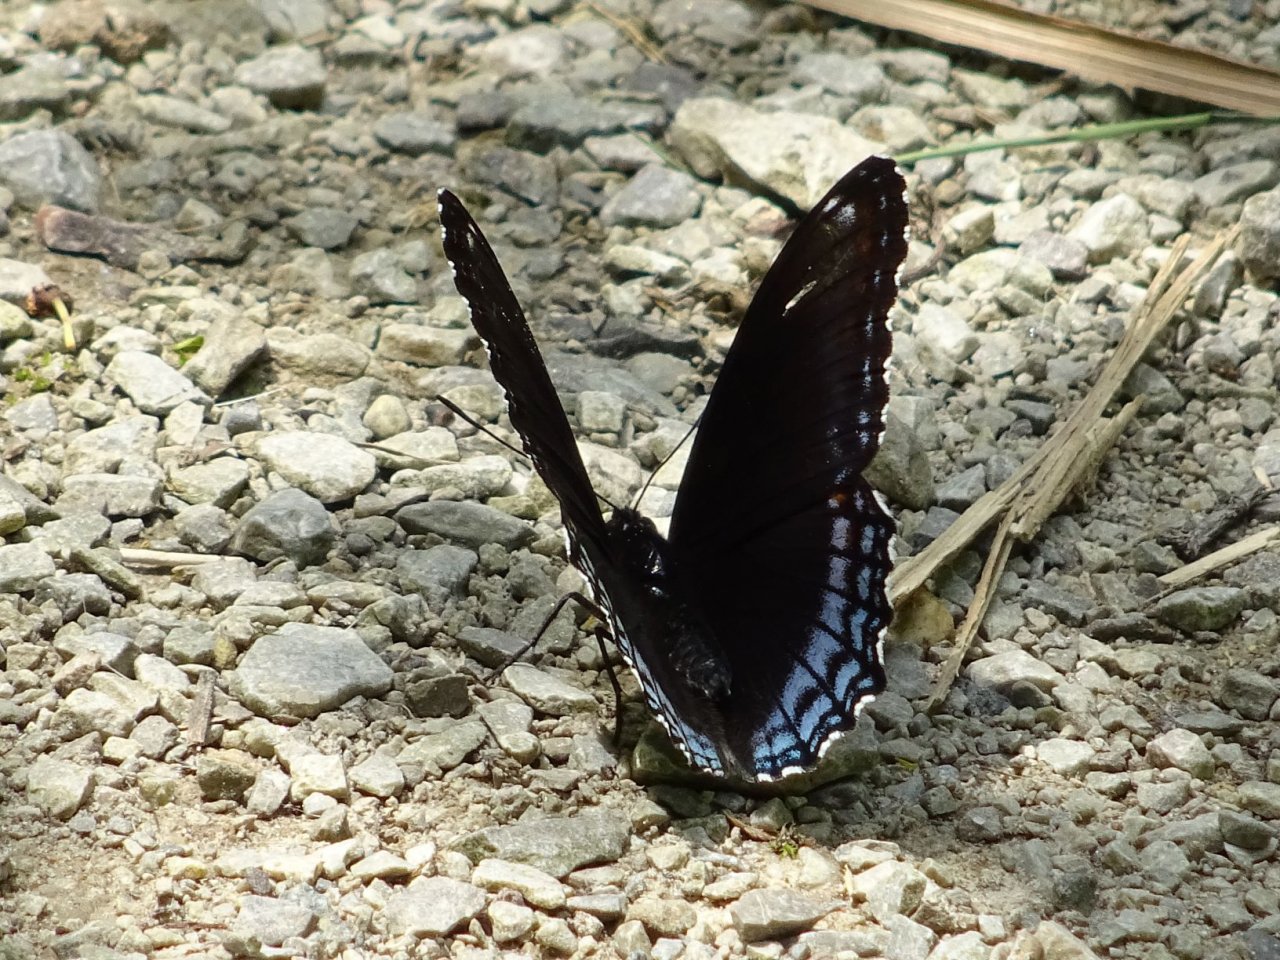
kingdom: Animalia
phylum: Arthropoda
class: Insecta
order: Lepidoptera
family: Nymphalidae
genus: Limenitis
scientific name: Limenitis astyanax
